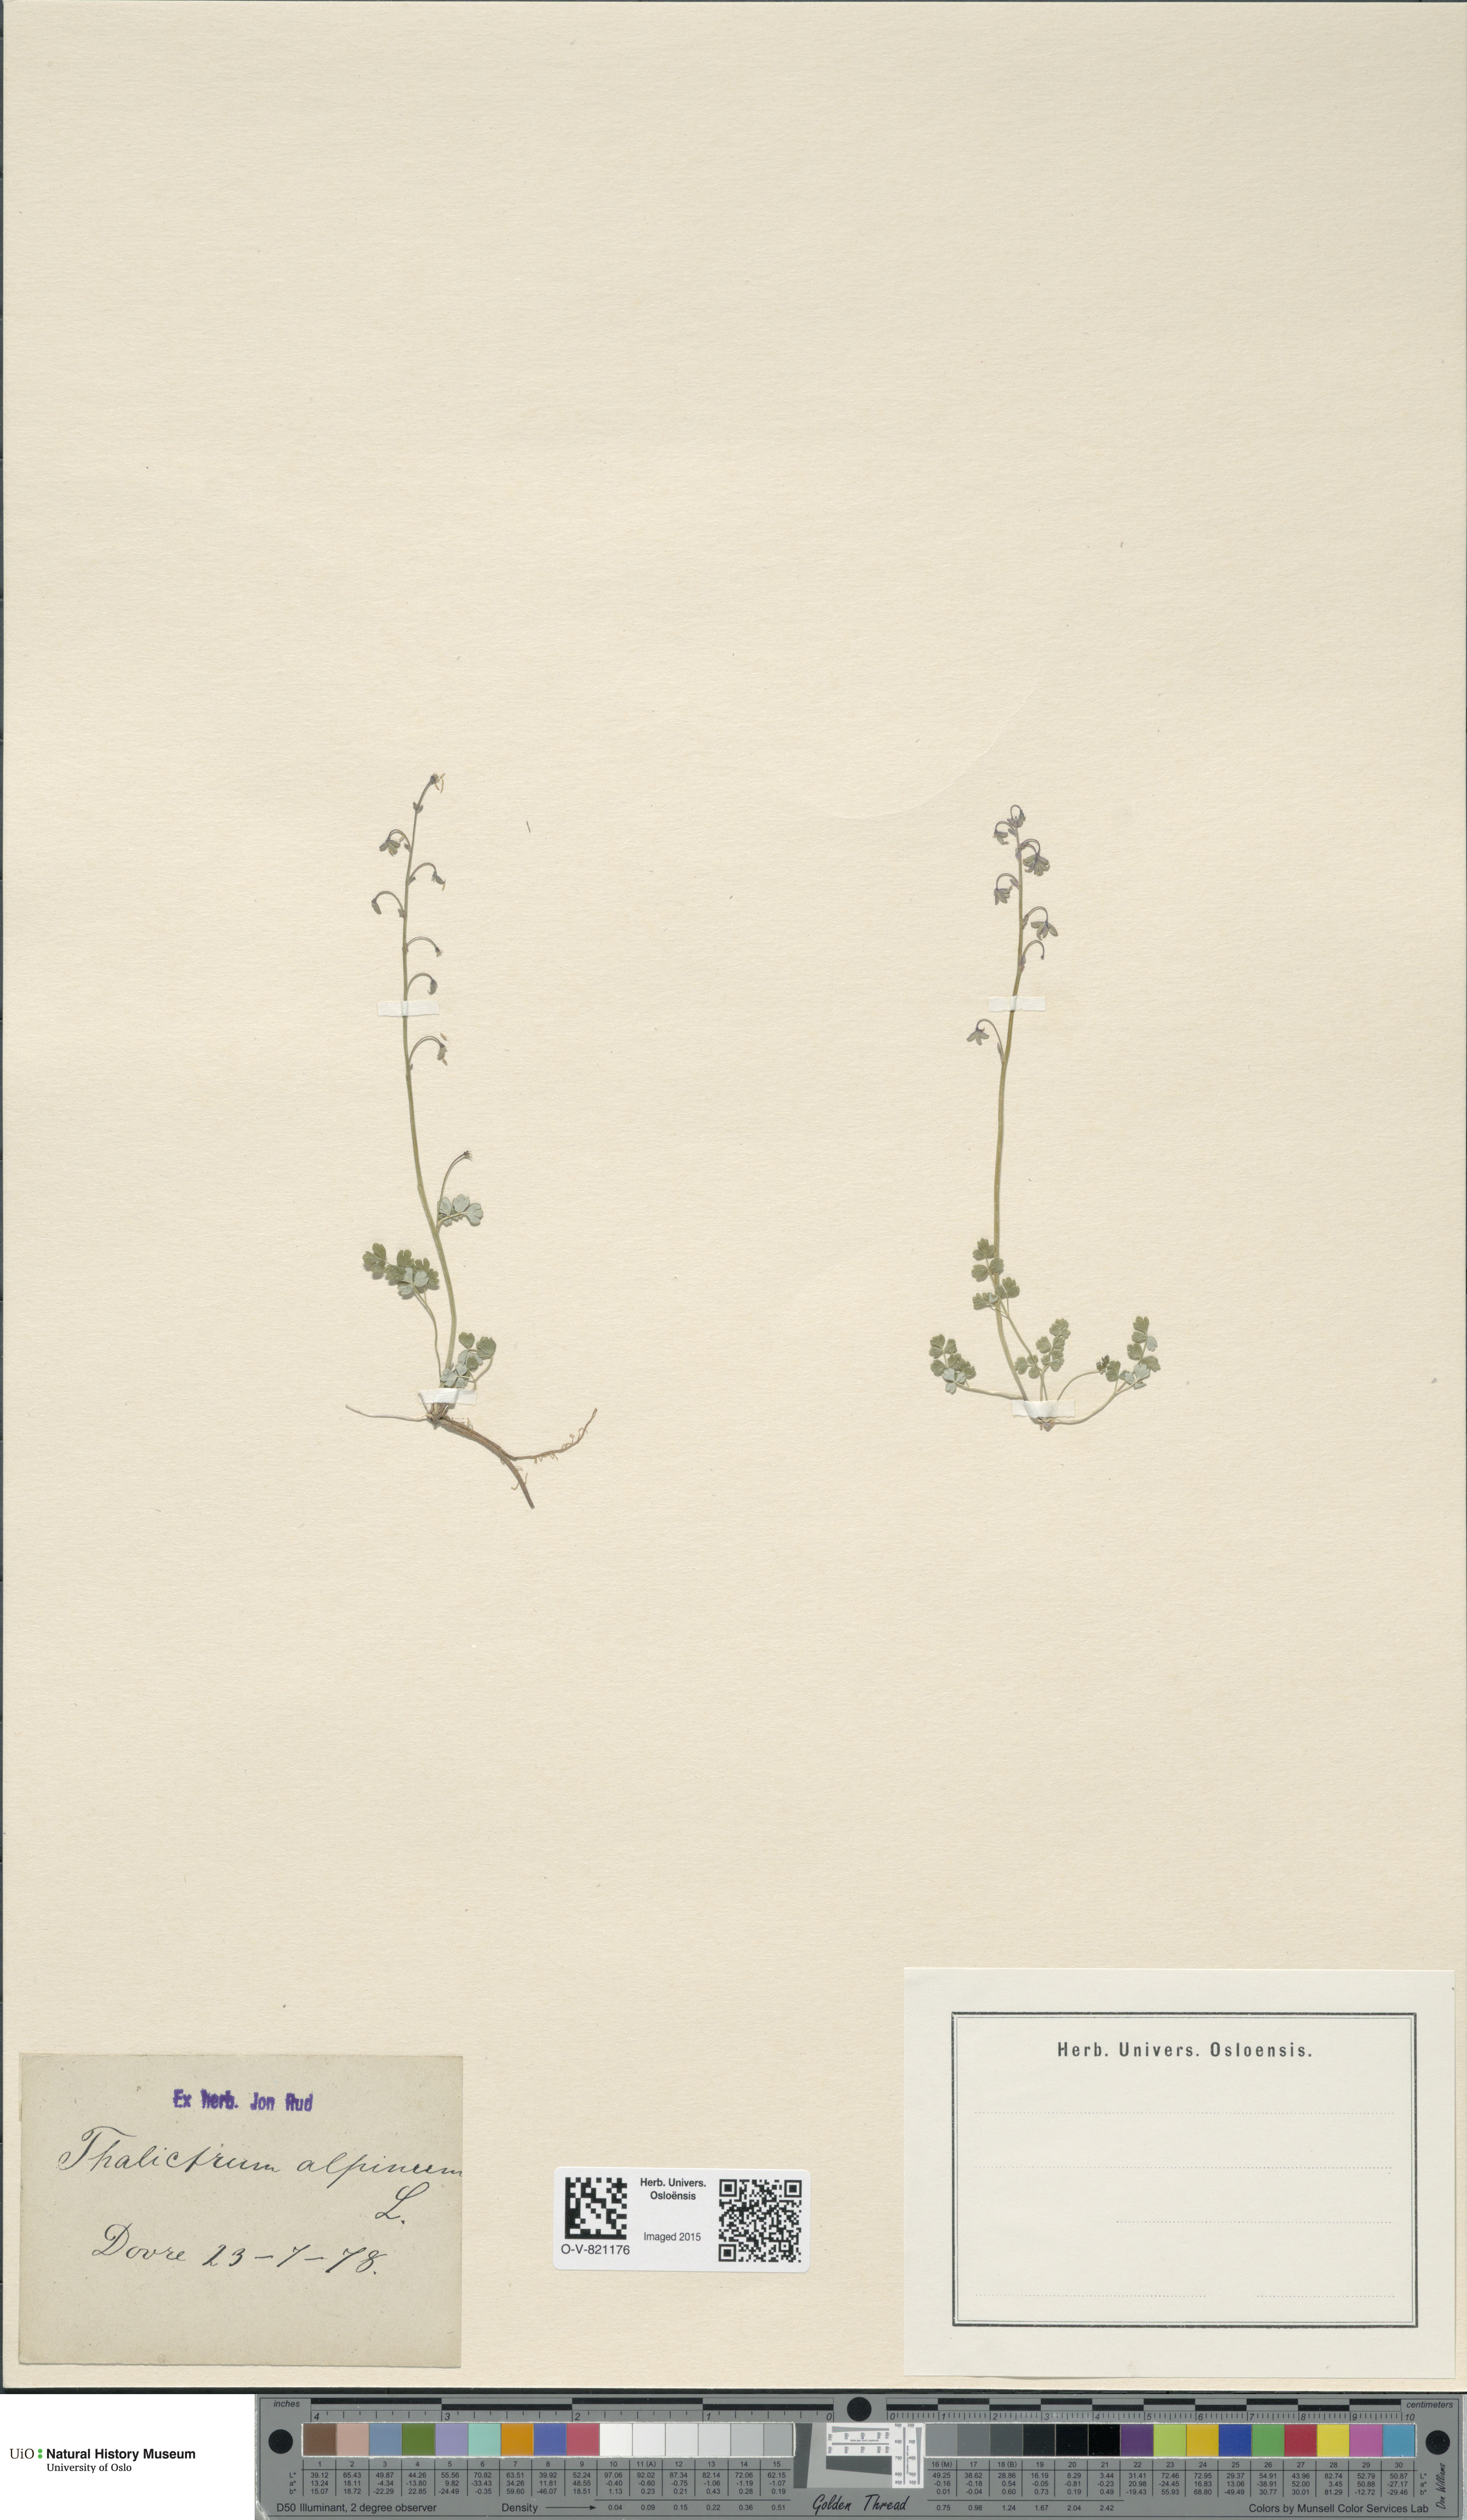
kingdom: Plantae
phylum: Tracheophyta
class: Magnoliopsida
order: Ranunculales
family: Ranunculaceae
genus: Thalictrum
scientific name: Thalictrum alpinum
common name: Alpine meadow-rue
